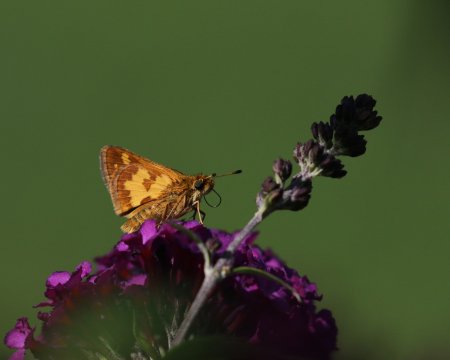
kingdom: Animalia
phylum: Arthropoda
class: Insecta
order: Lepidoptera
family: Hesperiidae
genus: Polites
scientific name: Polites coras
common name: Peck's Skipper
